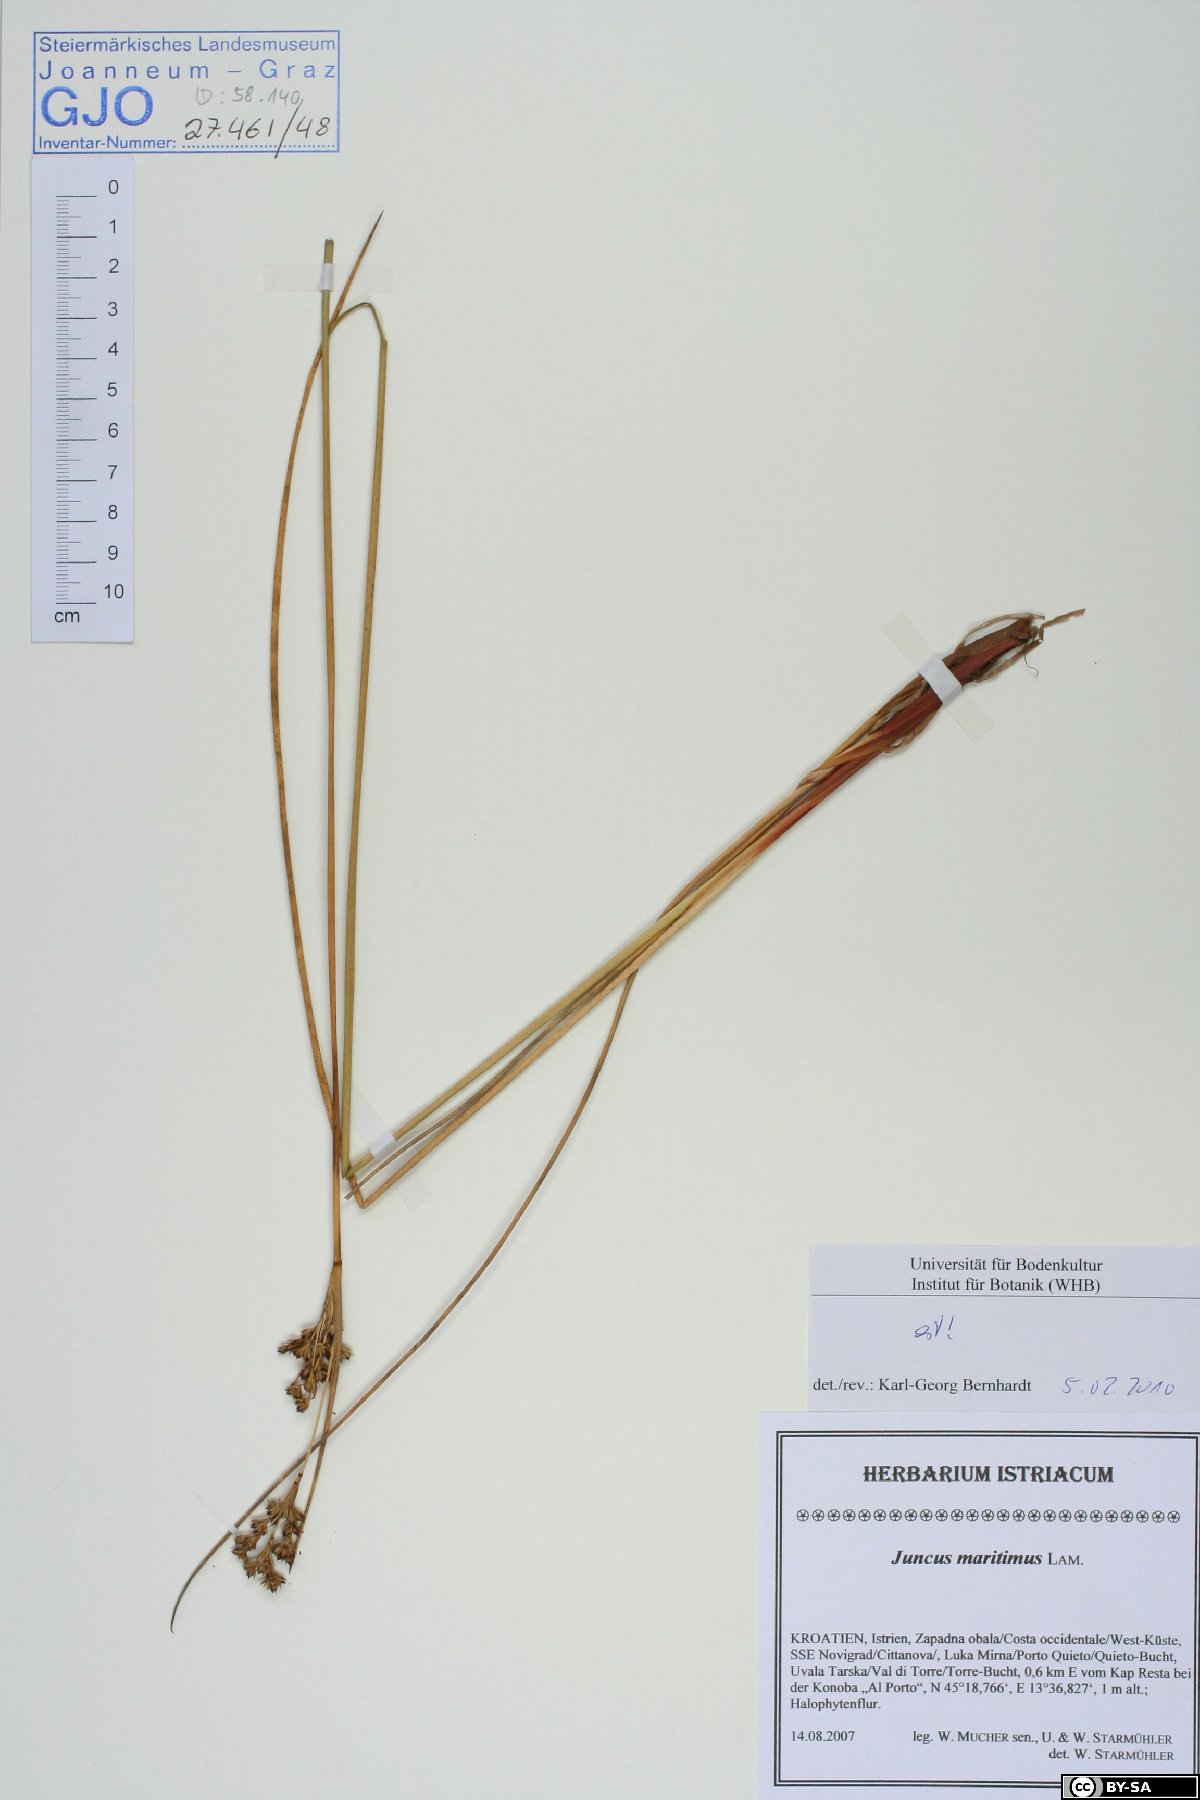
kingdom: Plantae
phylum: Tracheophyta
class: Liliopsida
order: Poales
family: Juncaceae
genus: Juncus
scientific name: Juncus maritimus
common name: Sea rush
